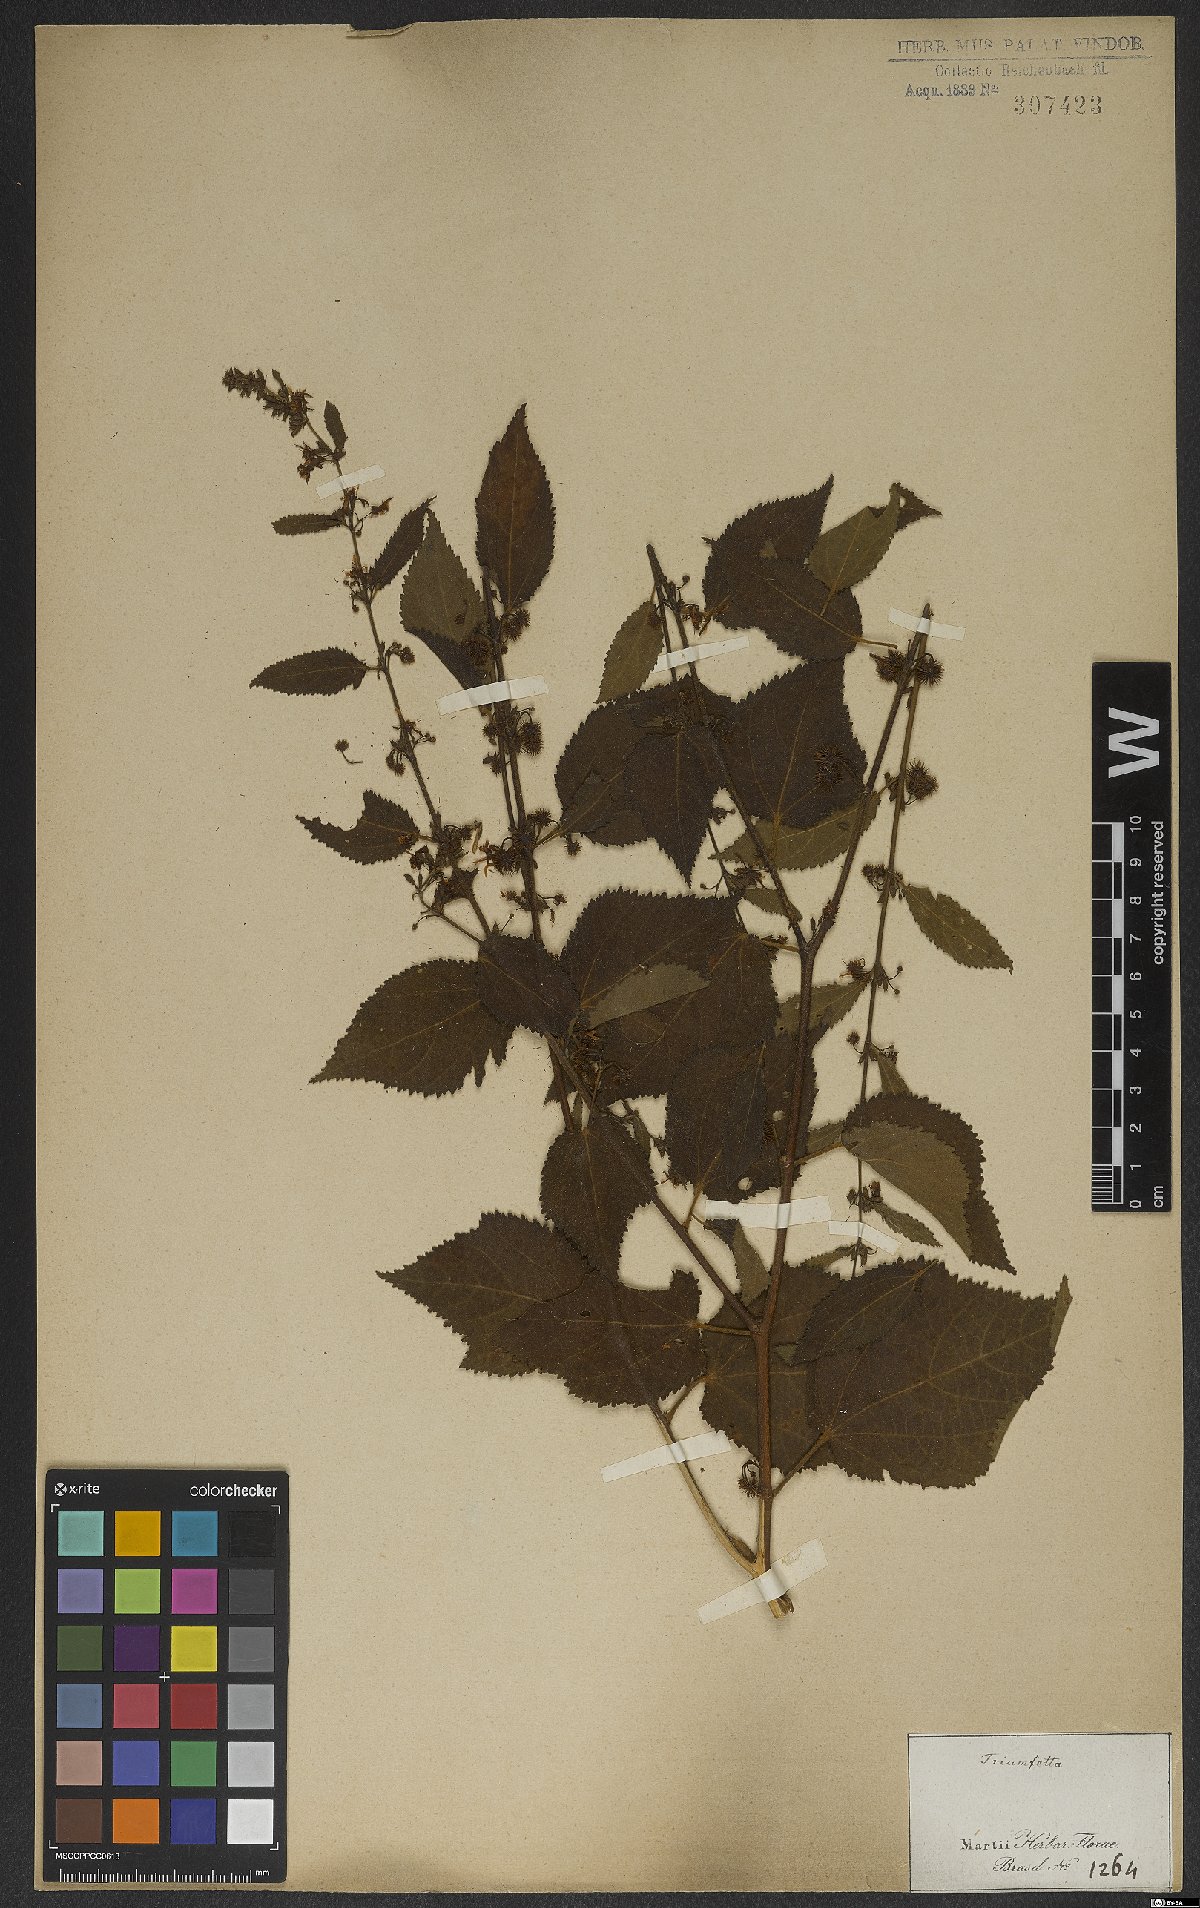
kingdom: Plantae
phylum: Tracheophyta
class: Magnoliopsida
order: Malvales
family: Malvaceae
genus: Triumfetta
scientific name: Triumfetta
